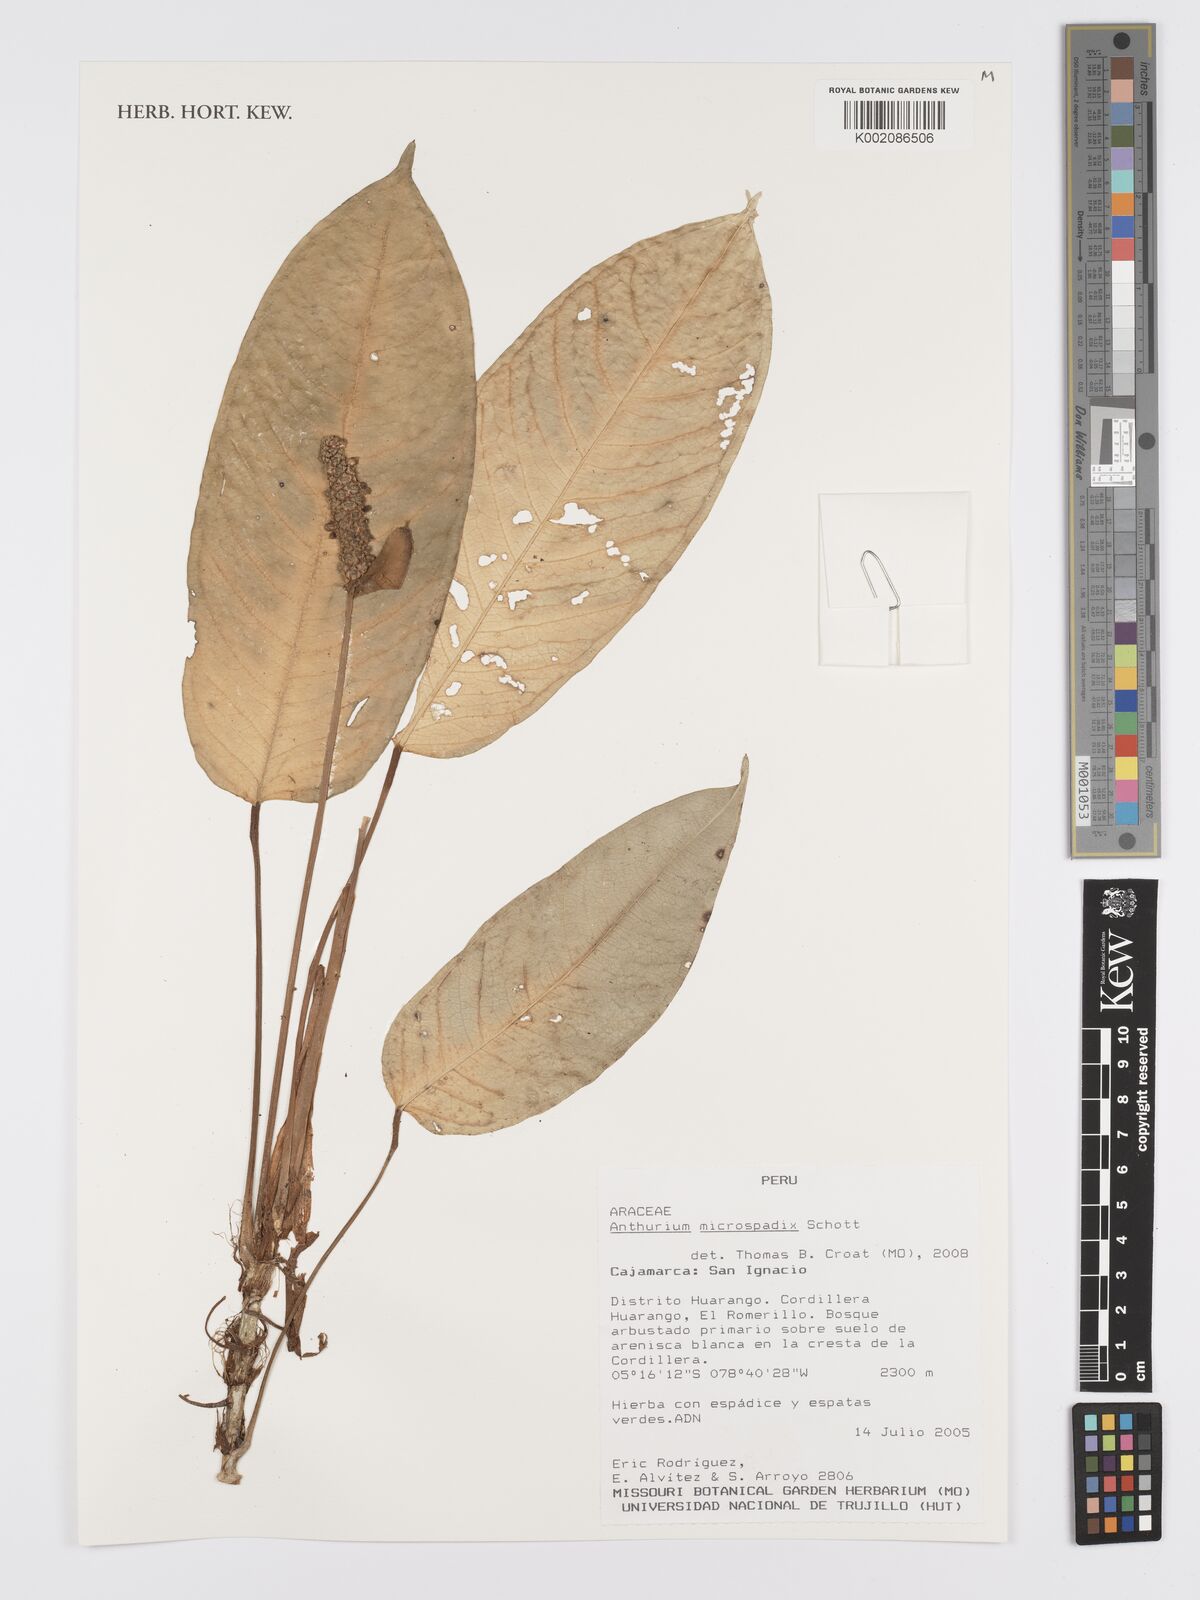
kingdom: Plantae
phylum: Tracheophyta
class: Liliopsida
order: Alismatales
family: Araceae
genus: Anthurium
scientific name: Anthurium microspadix
